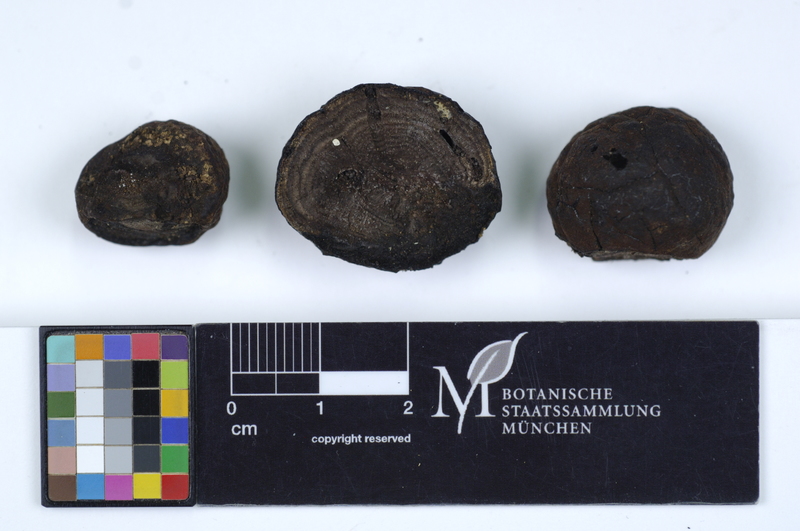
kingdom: Fungi
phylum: Ascomycota
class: Sordariomycetes
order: Xylariales
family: Hypoxylaceae
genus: Daldinia
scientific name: Daldinia concentrica
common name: Cramp balls
